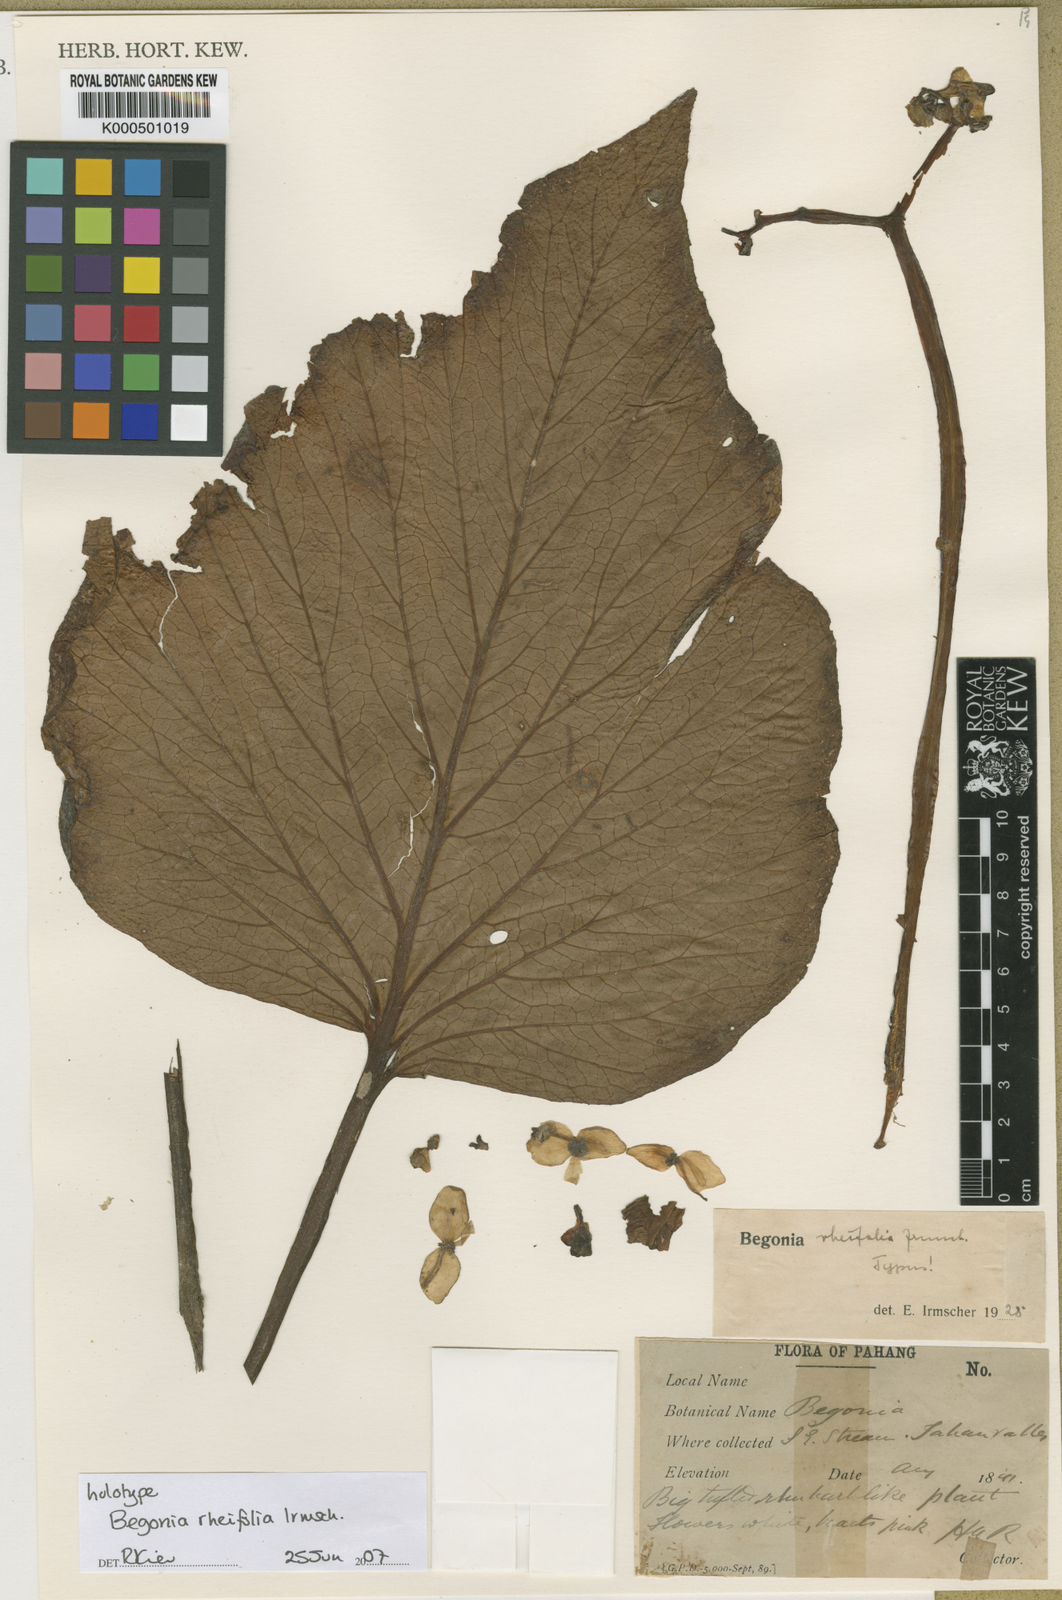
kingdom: Plantae
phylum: Tracheophyta
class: Magnoliopsida
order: Cucurbitales
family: Begoniaceae
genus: Begonia
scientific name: Begonia rheifolia
